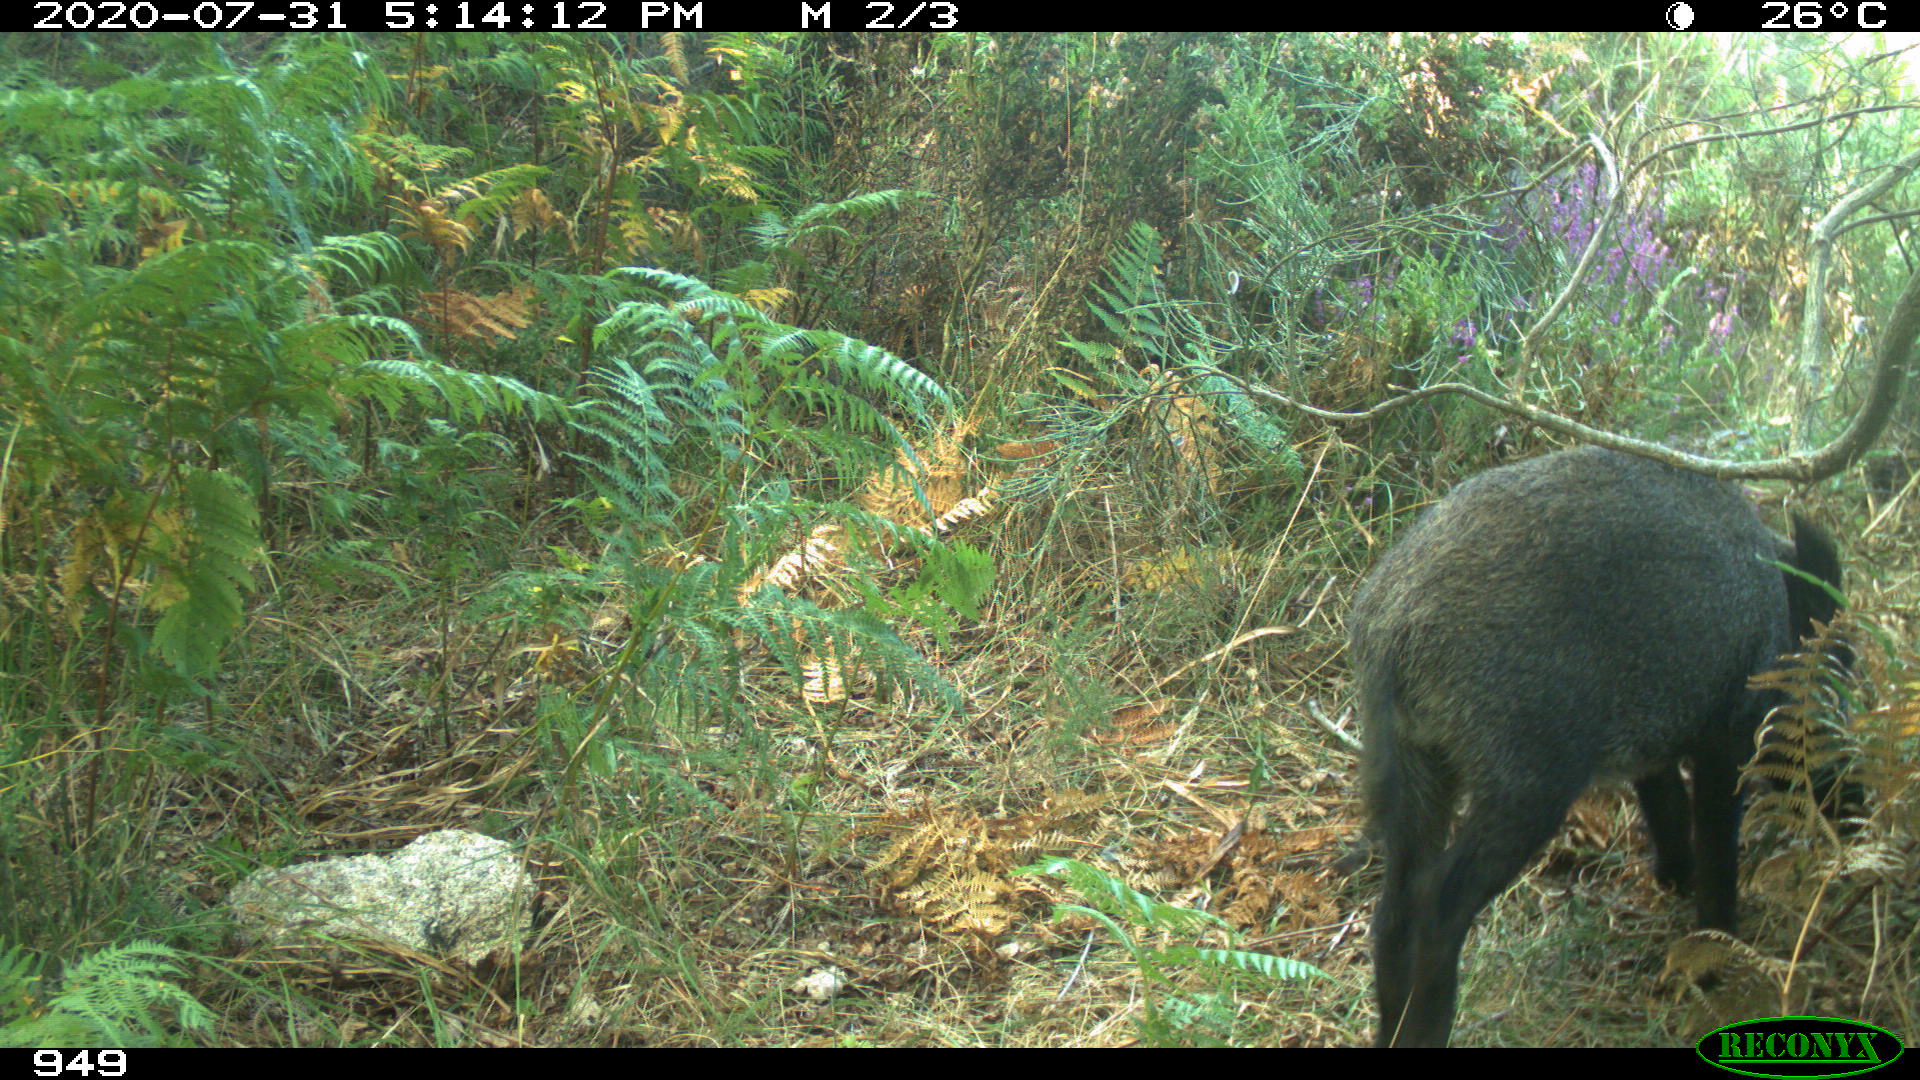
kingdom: Animalia
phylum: Chordata
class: Mammalia
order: Artiodactyla
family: Suidae
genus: Sus
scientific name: Sus scrofa
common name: Wild boar
